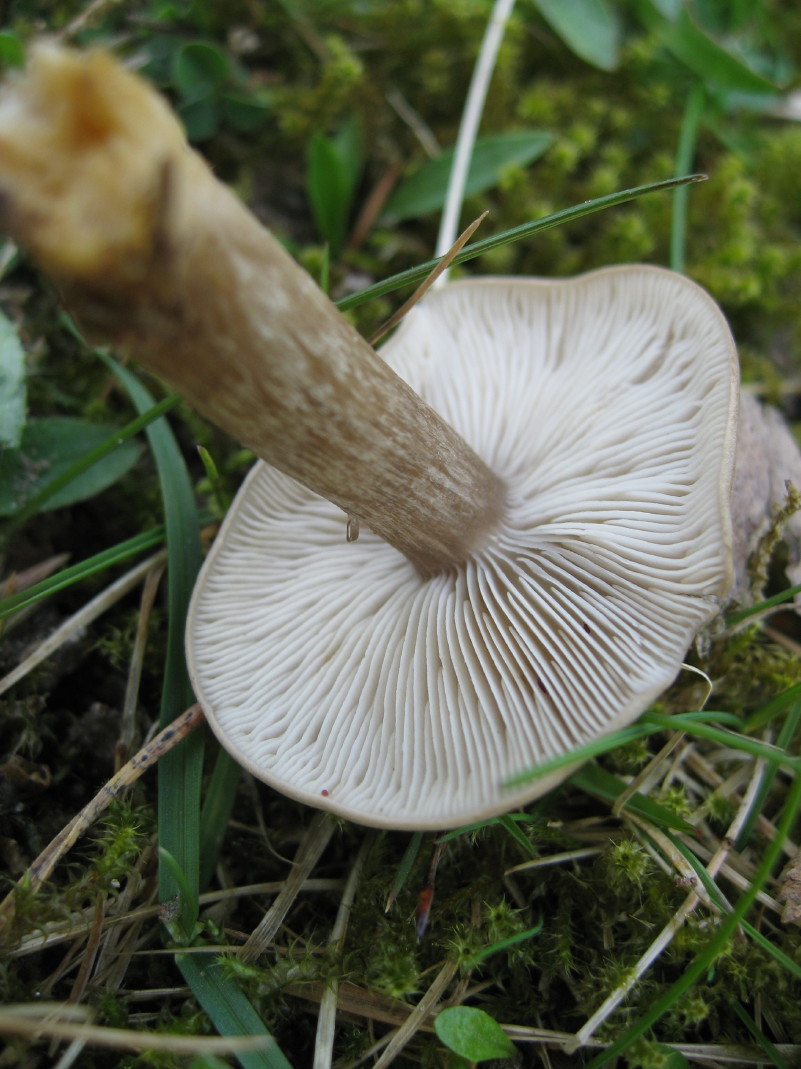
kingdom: Fungi
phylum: Basidiomycota
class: Agaricomycetes
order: Agaricales
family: Tricholomataceae
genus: Melanoleuca
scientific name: Melanoleuca
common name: munkehat
